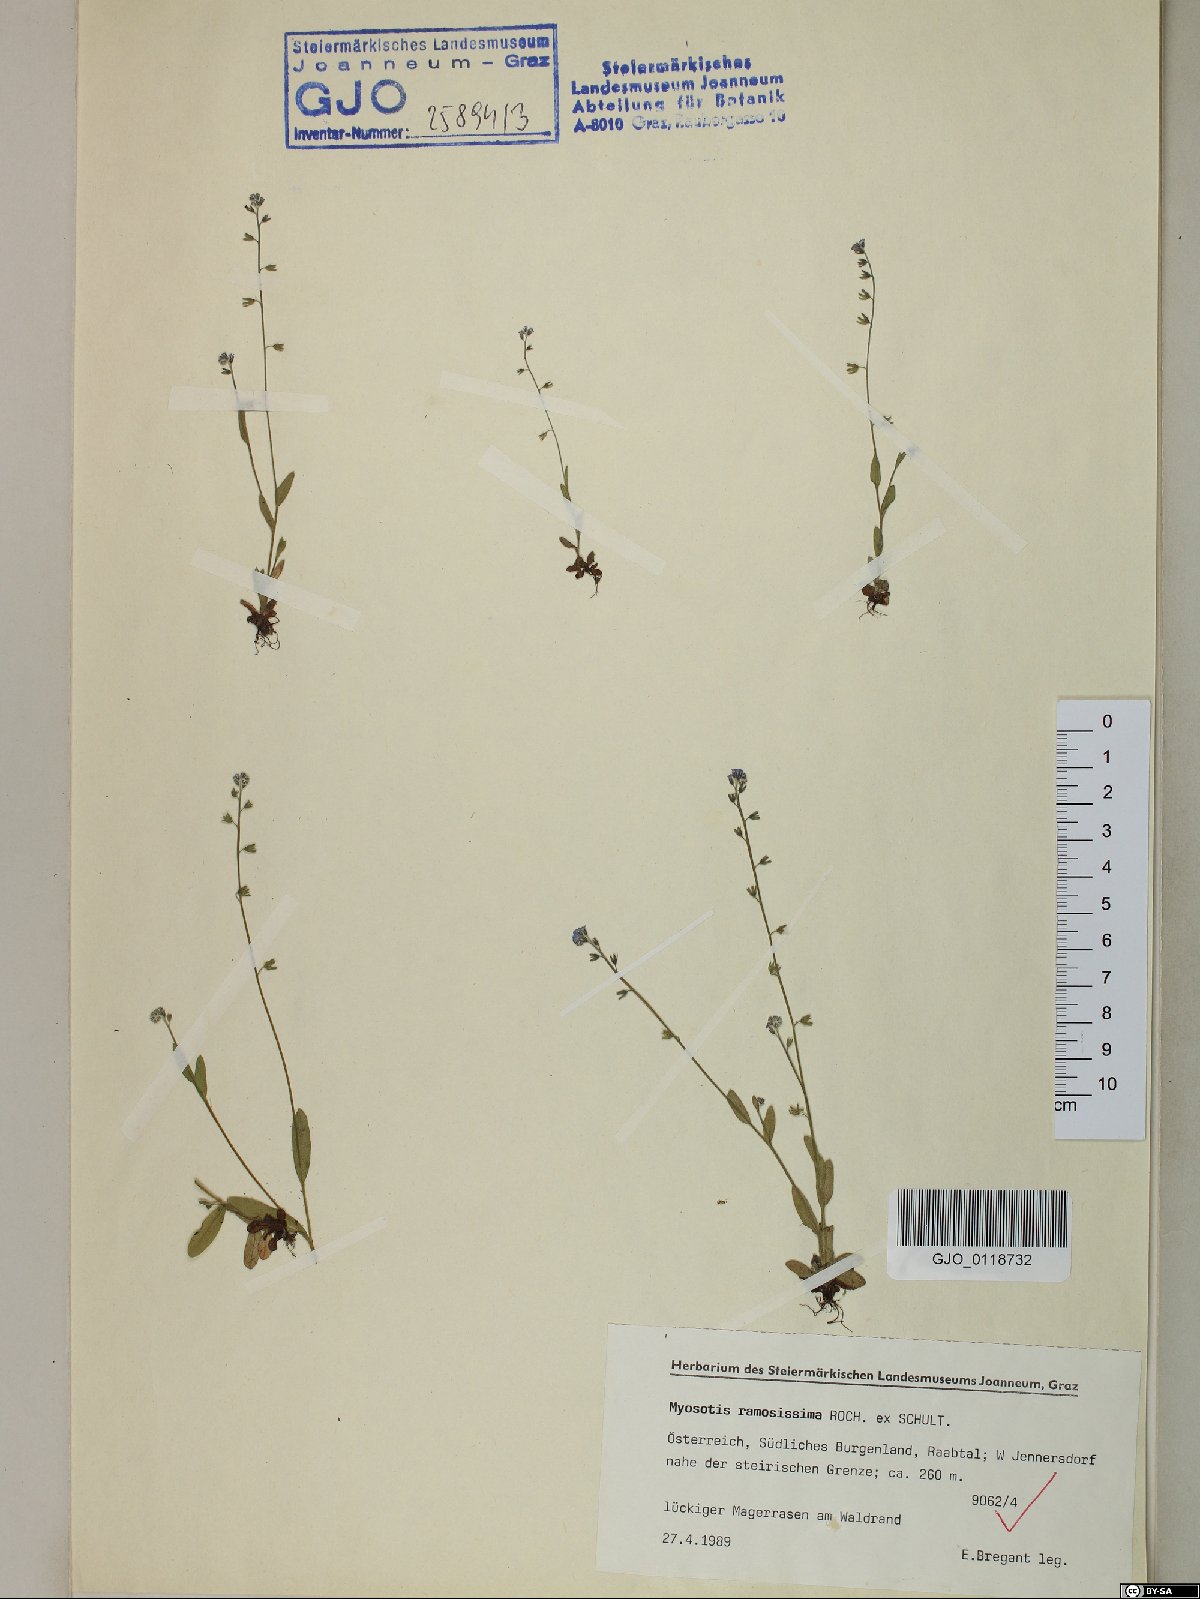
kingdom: Plantae
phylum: Tracheophyta
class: Magnoliopsida
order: Boraginales
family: Boraginaceae
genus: Myosotis
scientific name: Myosotis ramosissima
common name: Early forget-me-not
